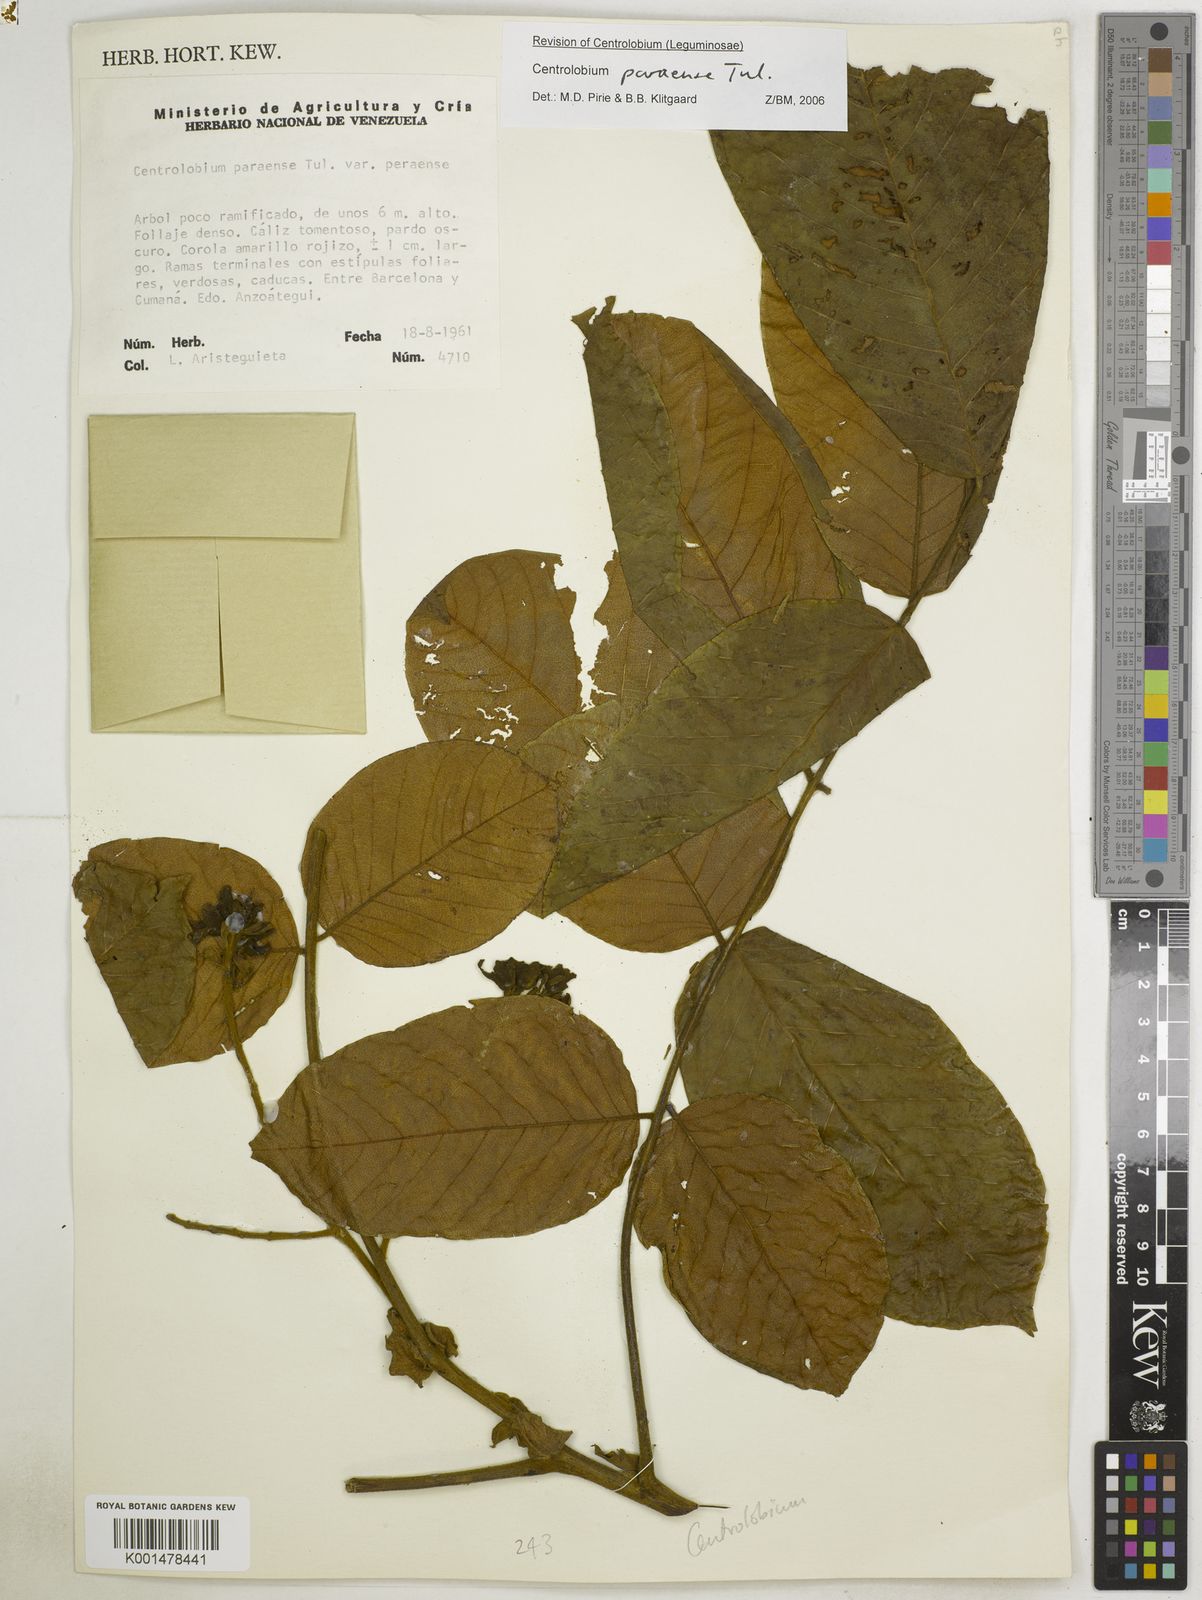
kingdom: Plantae
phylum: Tracheophyta
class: Magnoliopsida
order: Fabales
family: Fabaceae
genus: Centrolobium
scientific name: Centrolobium paraense
